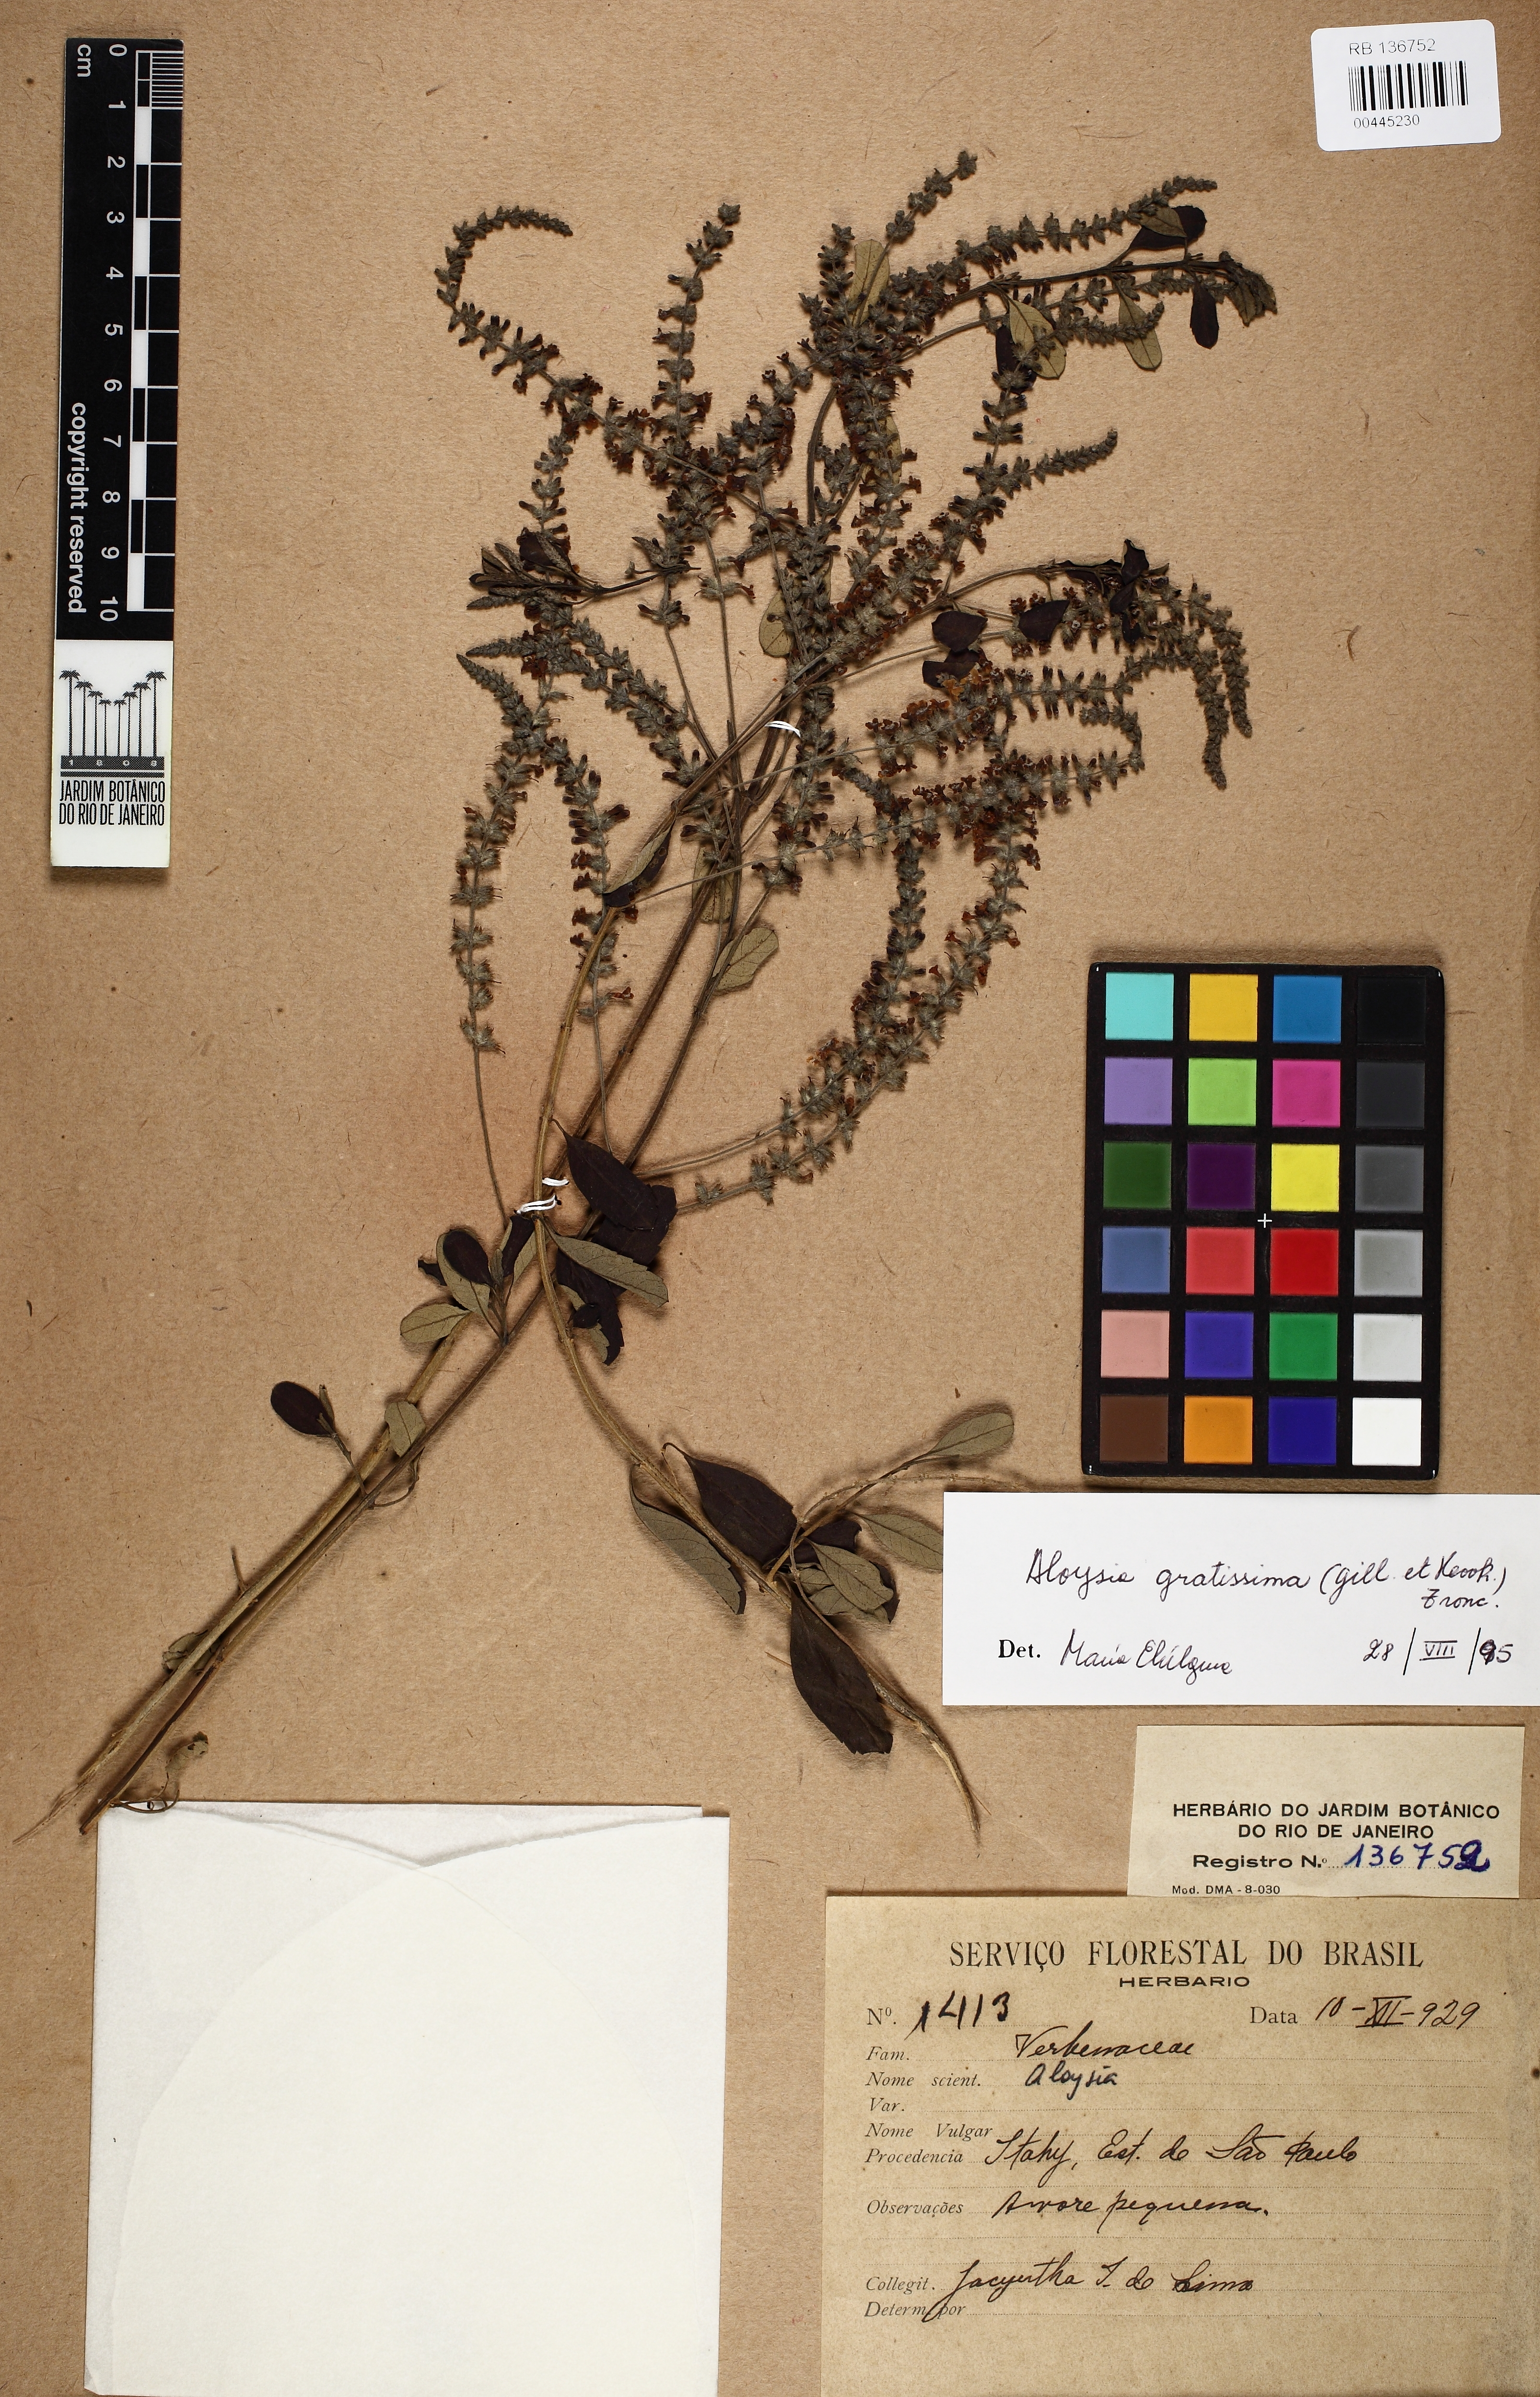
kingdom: Plantae
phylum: Tracheophyta
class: Magnoliopsida
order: Lamiales
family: Verbenaceae
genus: Aloysia
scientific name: Aloysia gratissima
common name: Common bee-brush
